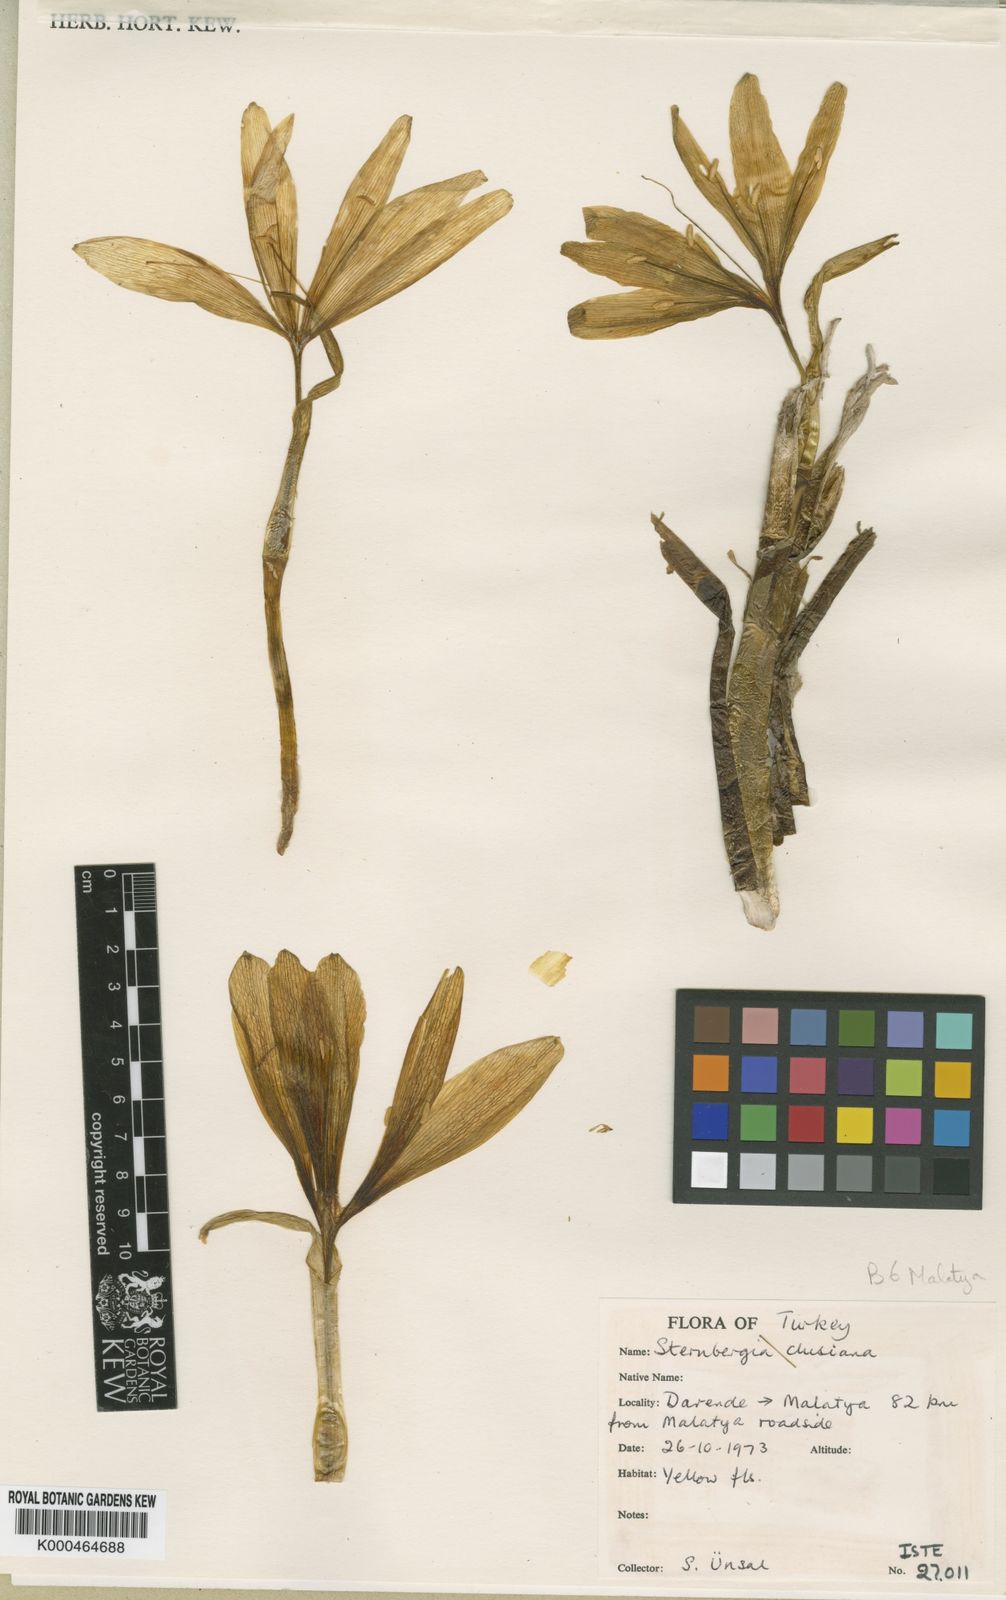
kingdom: Plantae
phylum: Tracheophyta
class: Liliopsida
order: Asparagales
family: Amaryllidaceae
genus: Sternbergia
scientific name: Sternbergia
